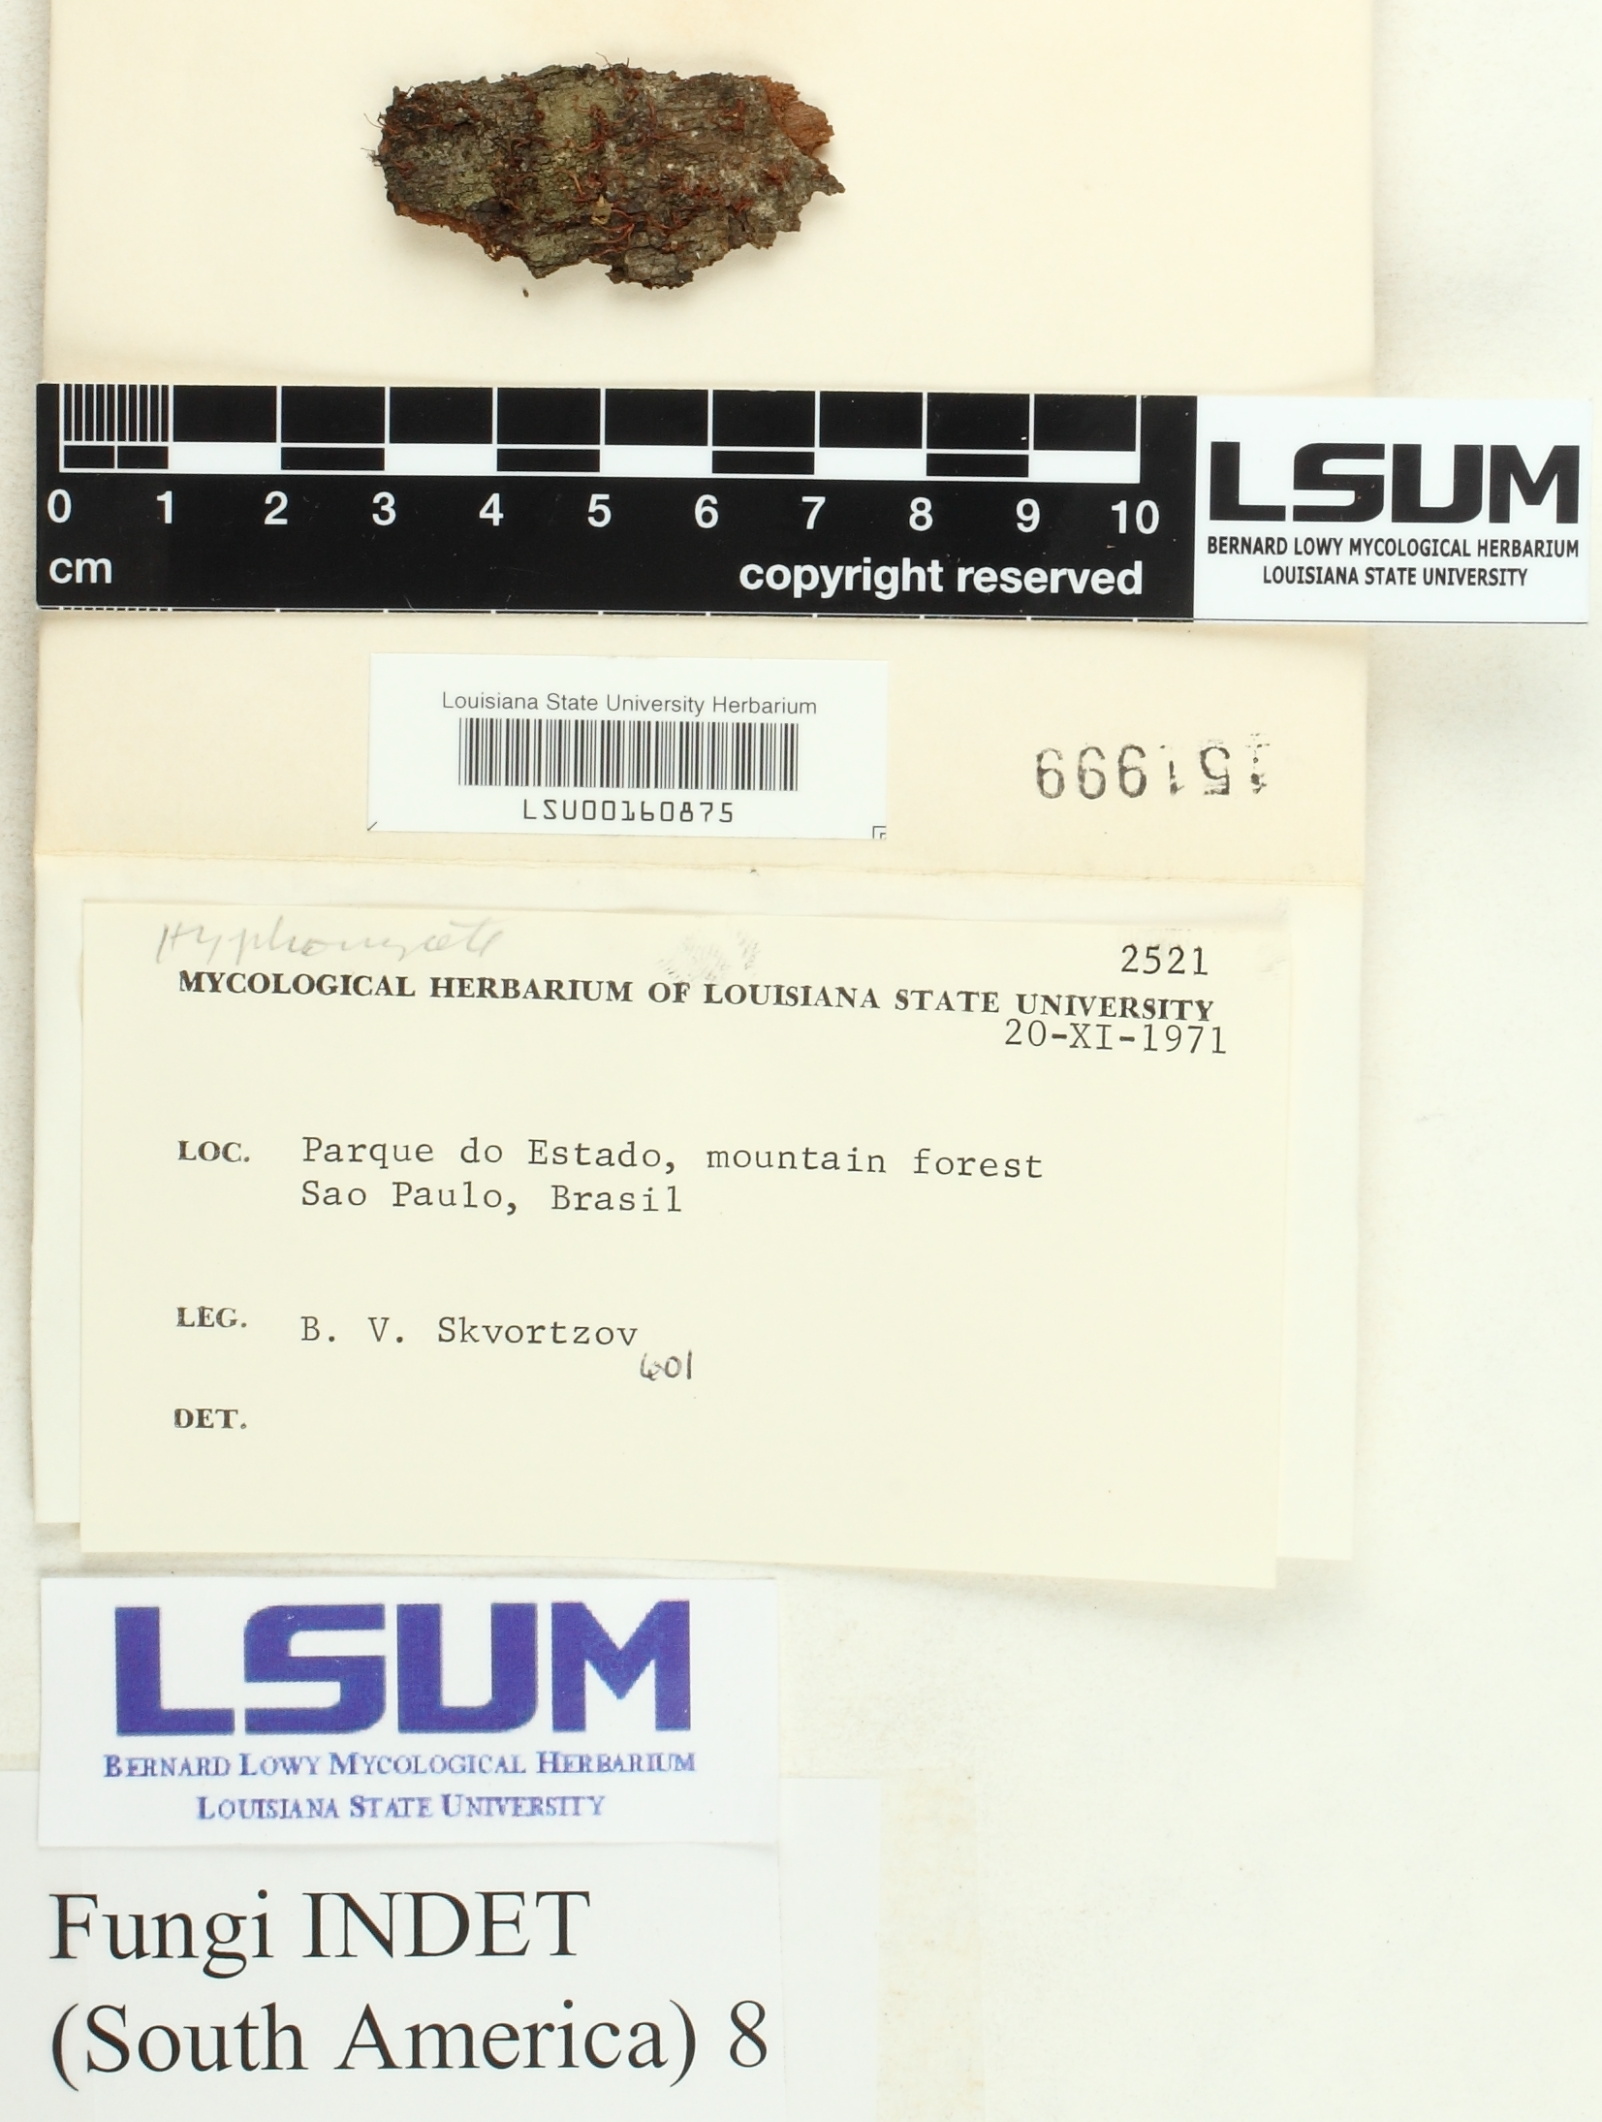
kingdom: Fungi
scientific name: Fungi
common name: Fungi
